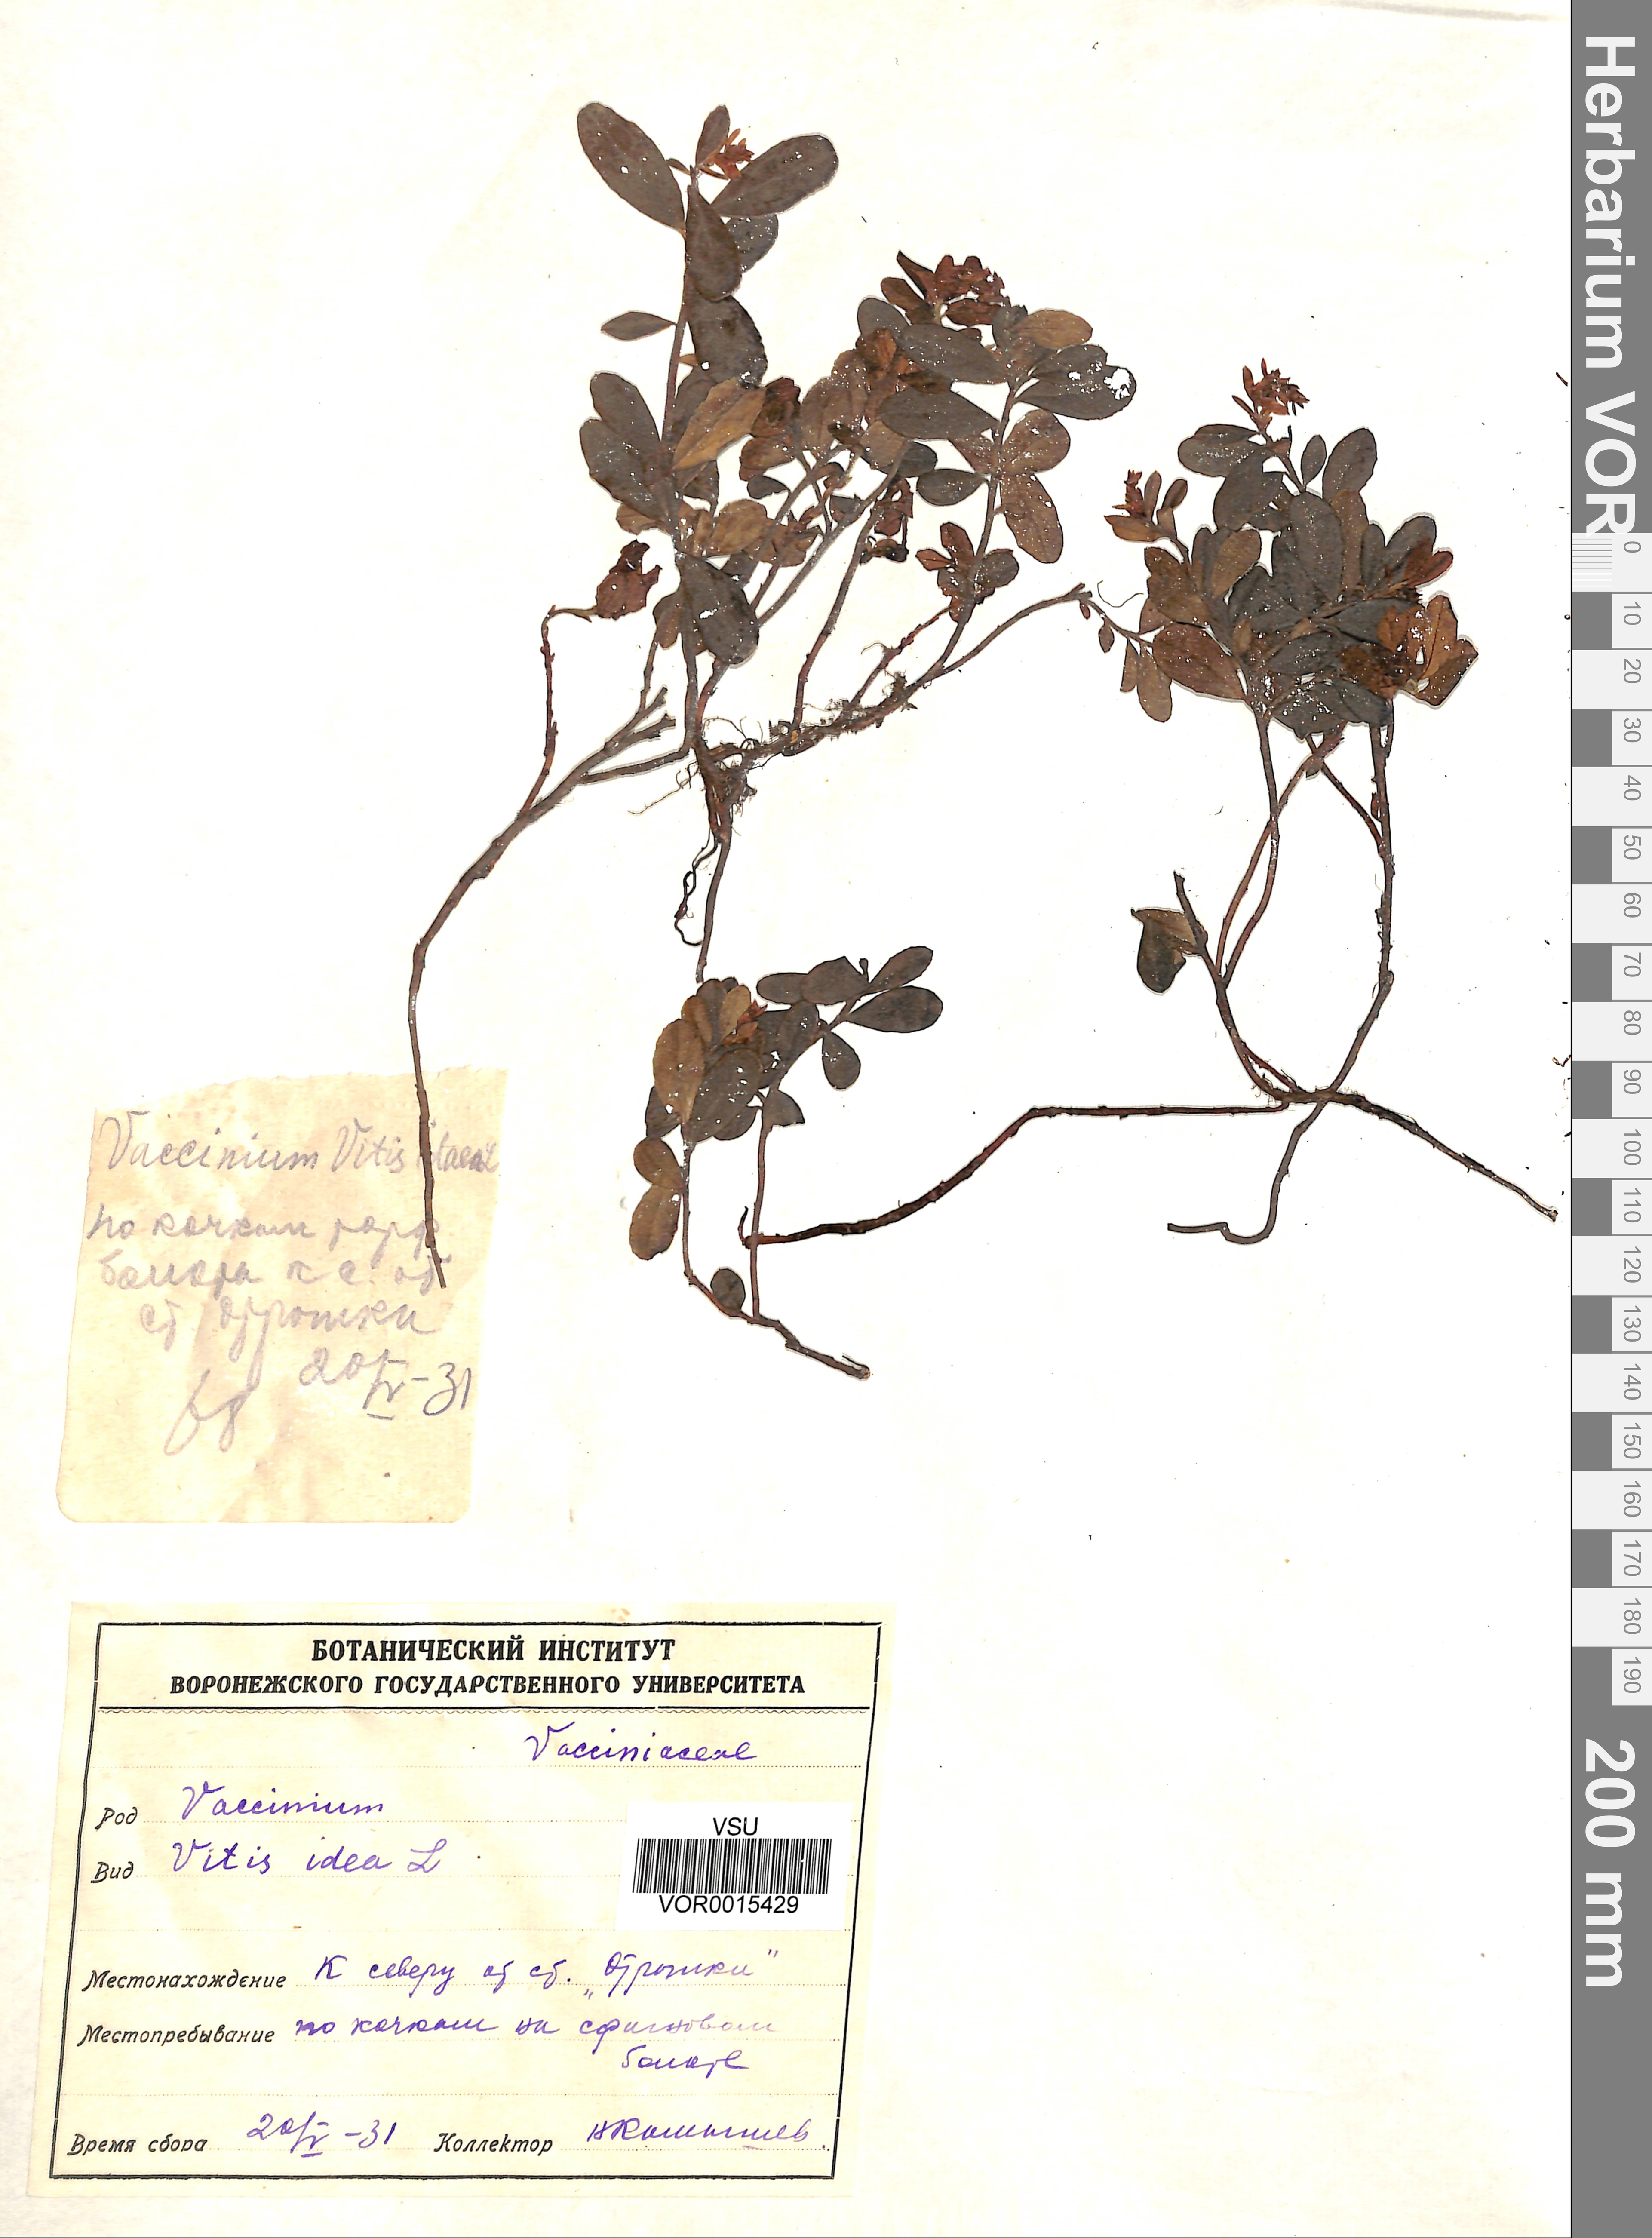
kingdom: Plantae
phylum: Tracheophyta
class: Magnoliopsida
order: Ericales
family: Ericaceae
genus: Vaccinium
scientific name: Vaccinium vitis-idaea
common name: Cowberry
